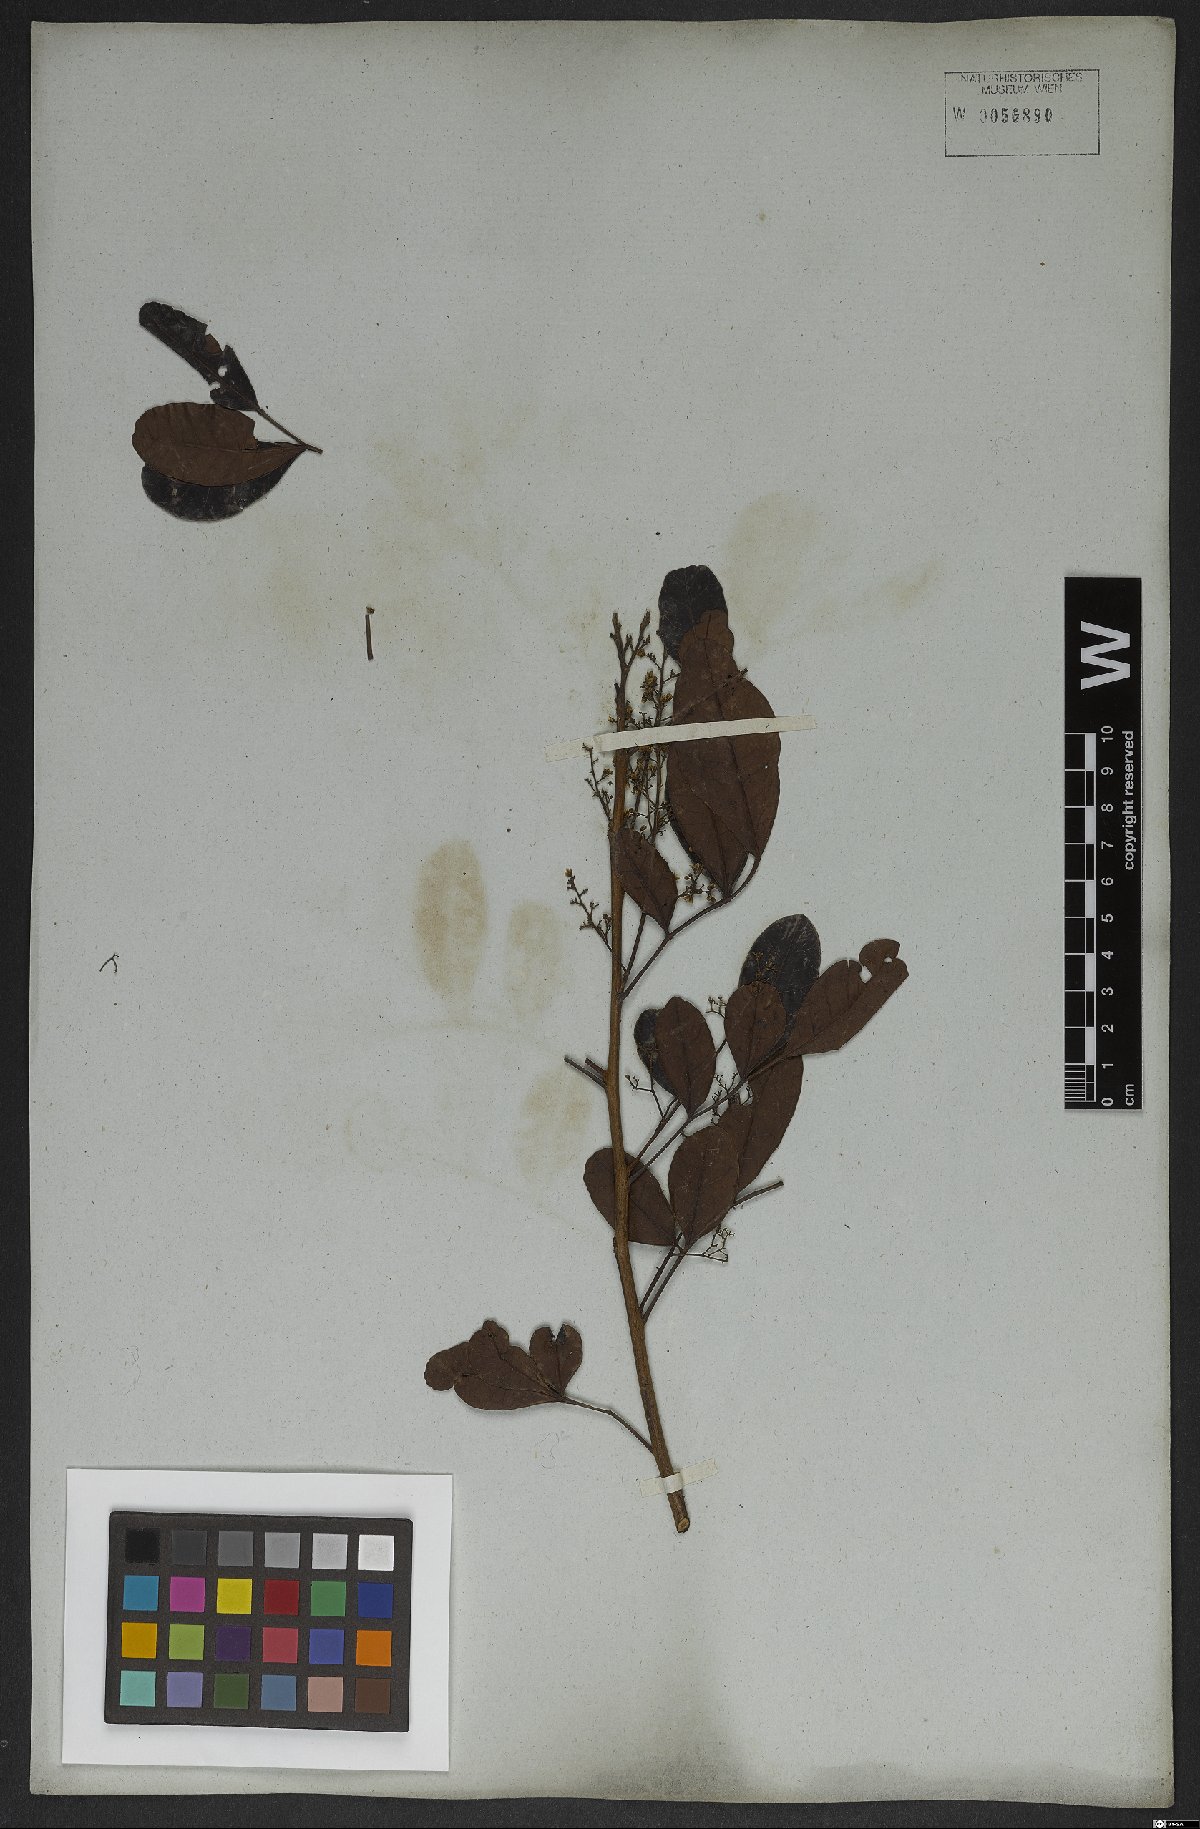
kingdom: Plantae
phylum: Tracheophyta
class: Magnoliopsida
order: Sapindales
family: Anacardiaceae
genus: Schinus
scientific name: Schinus terebinthifolia
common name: Brazilian peppertree
